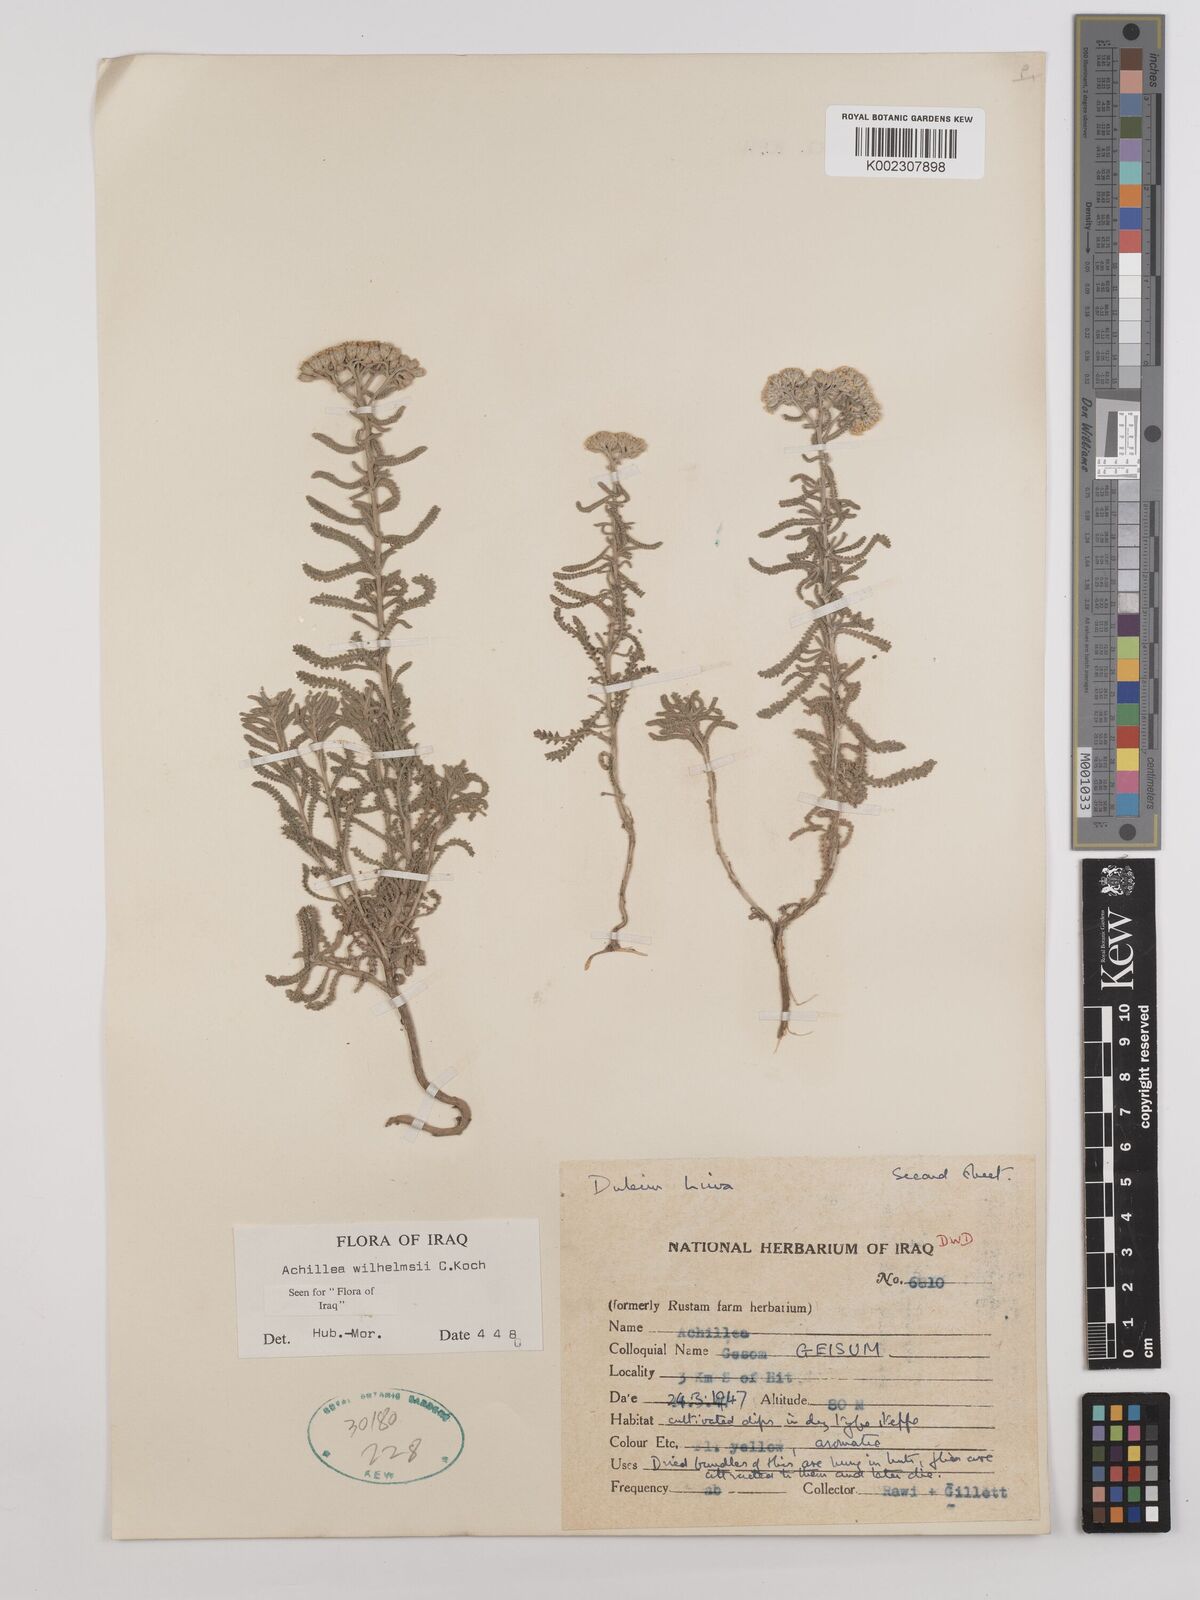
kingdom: Plantae
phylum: Tracheophyta
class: Magnoliopsida
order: Asterales
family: Asteraceae
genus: Achillea
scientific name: Achillea wilhelmsii
